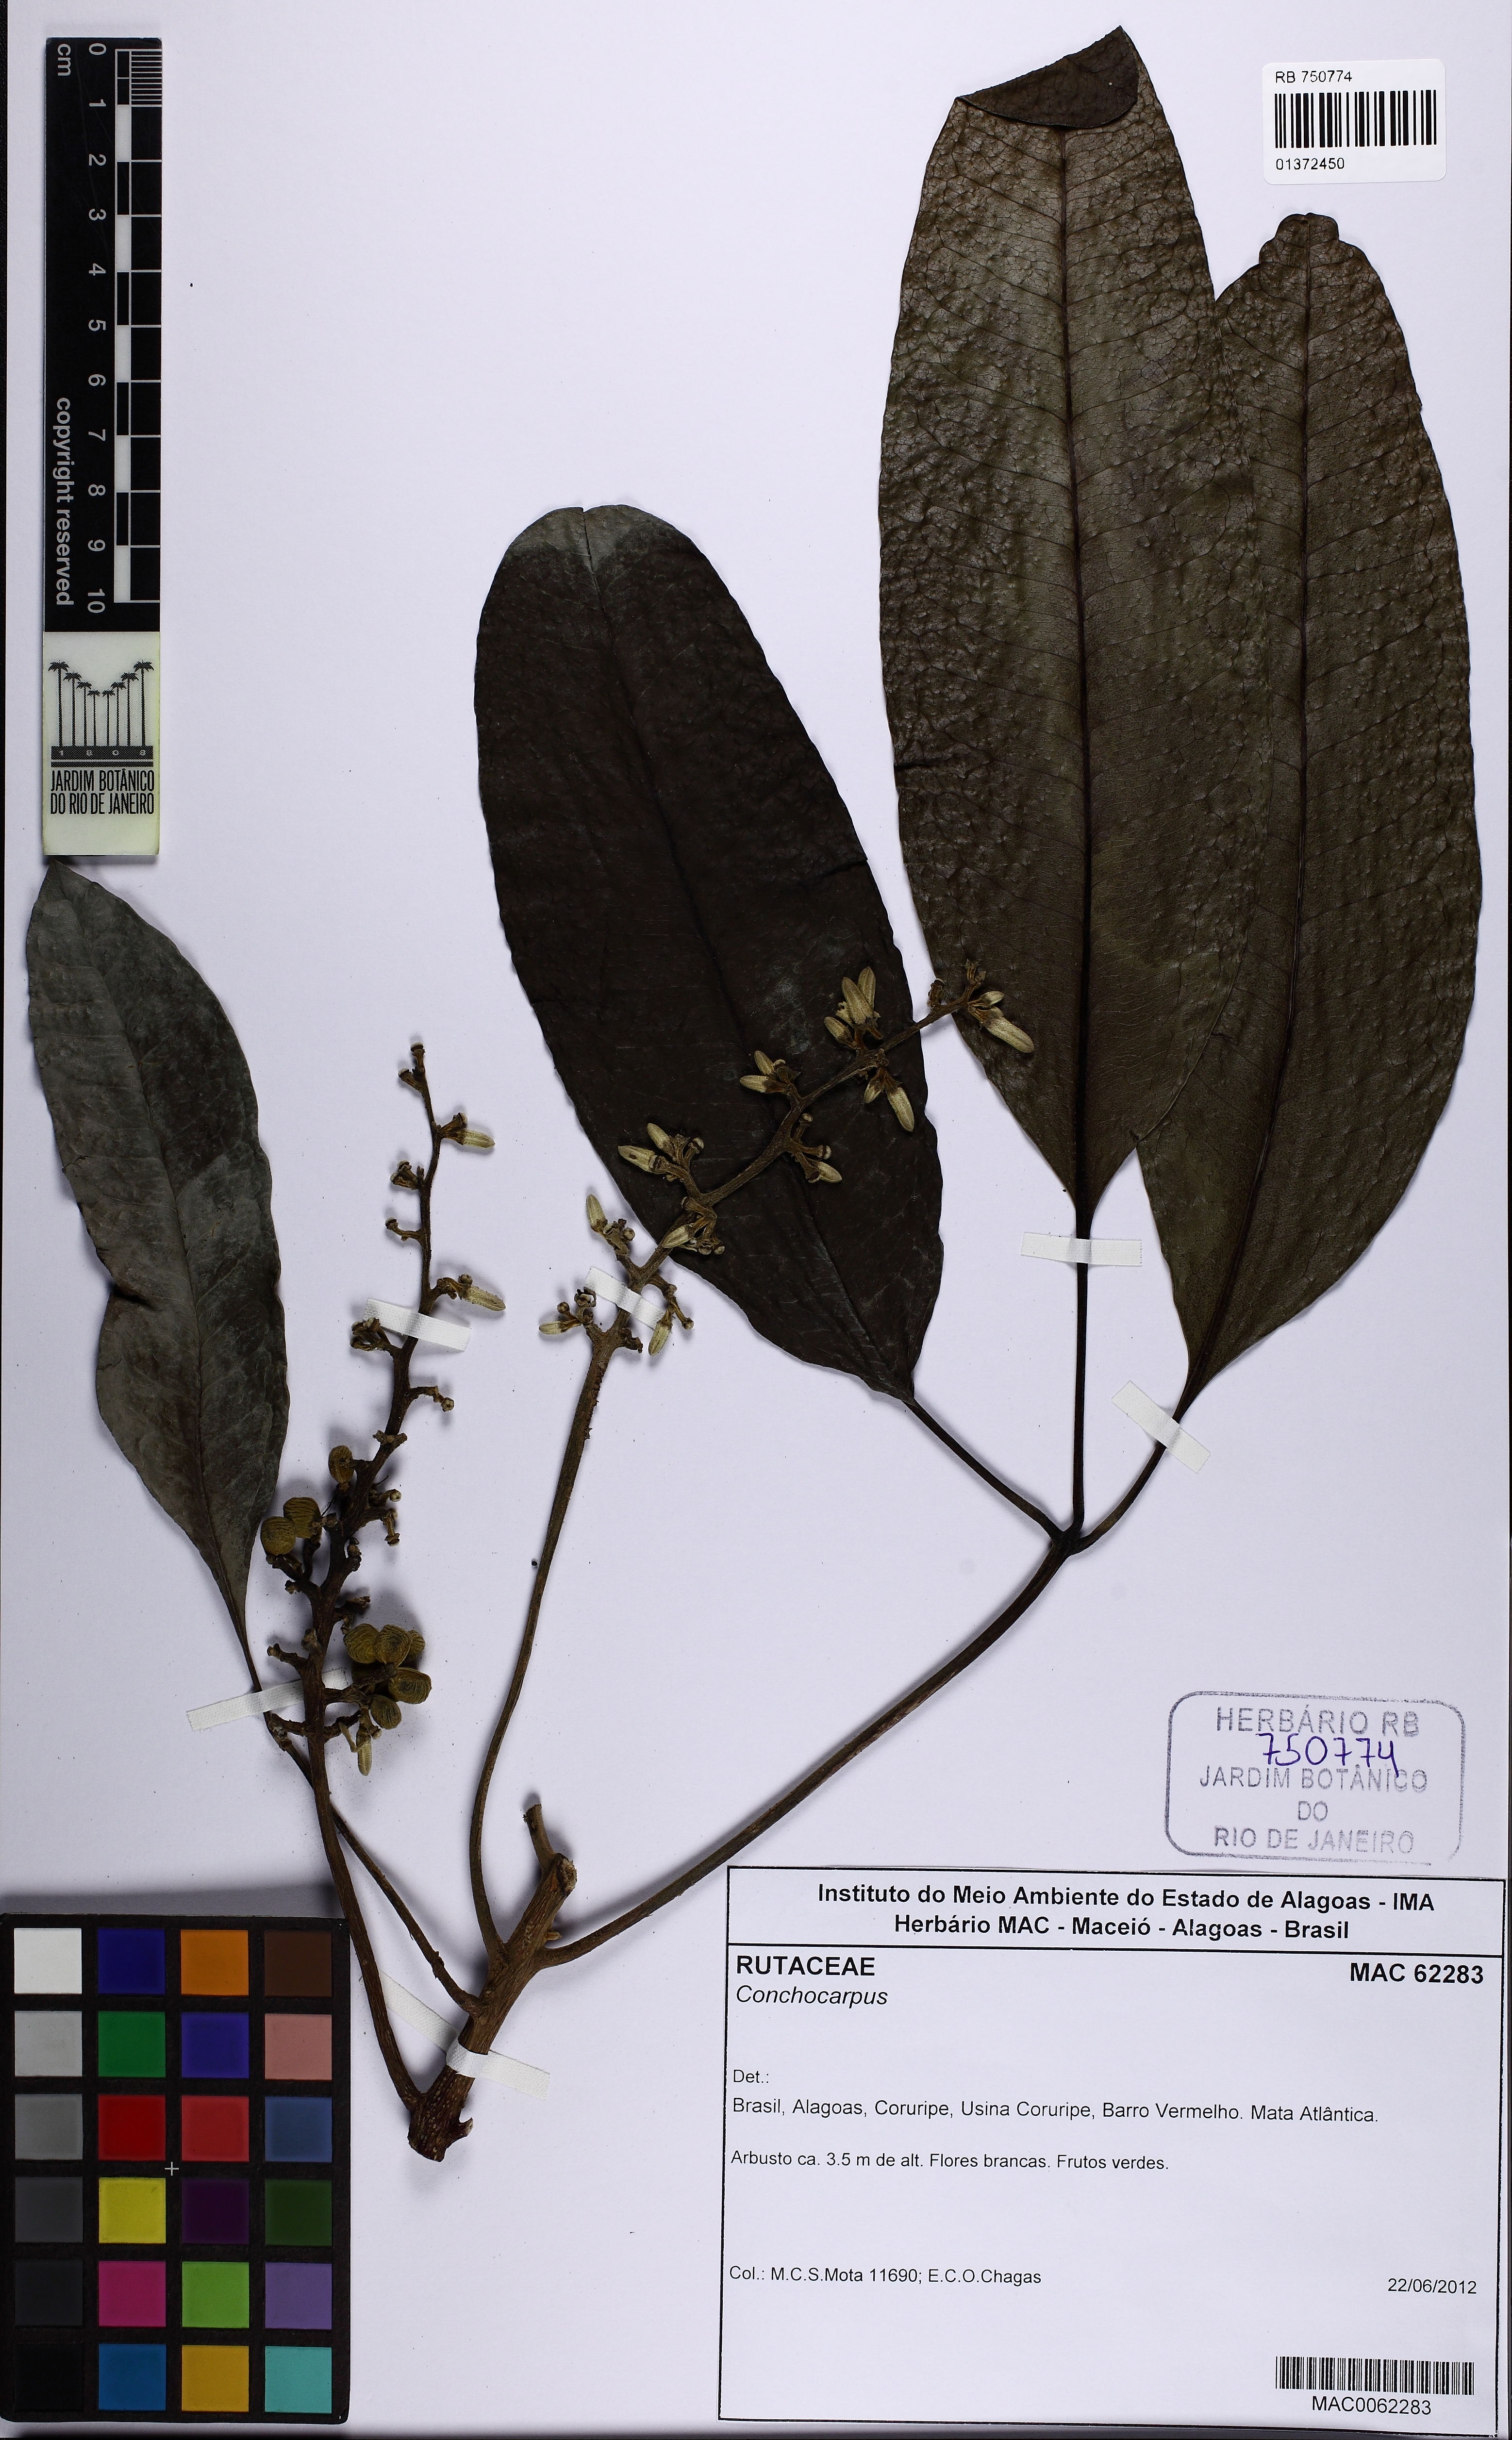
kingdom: Plantae
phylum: Tracheophyta
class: Magnoliopsida
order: Sapindales
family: Rutaceae
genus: Conchocarpus
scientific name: Conchocarpus heterophyllus
